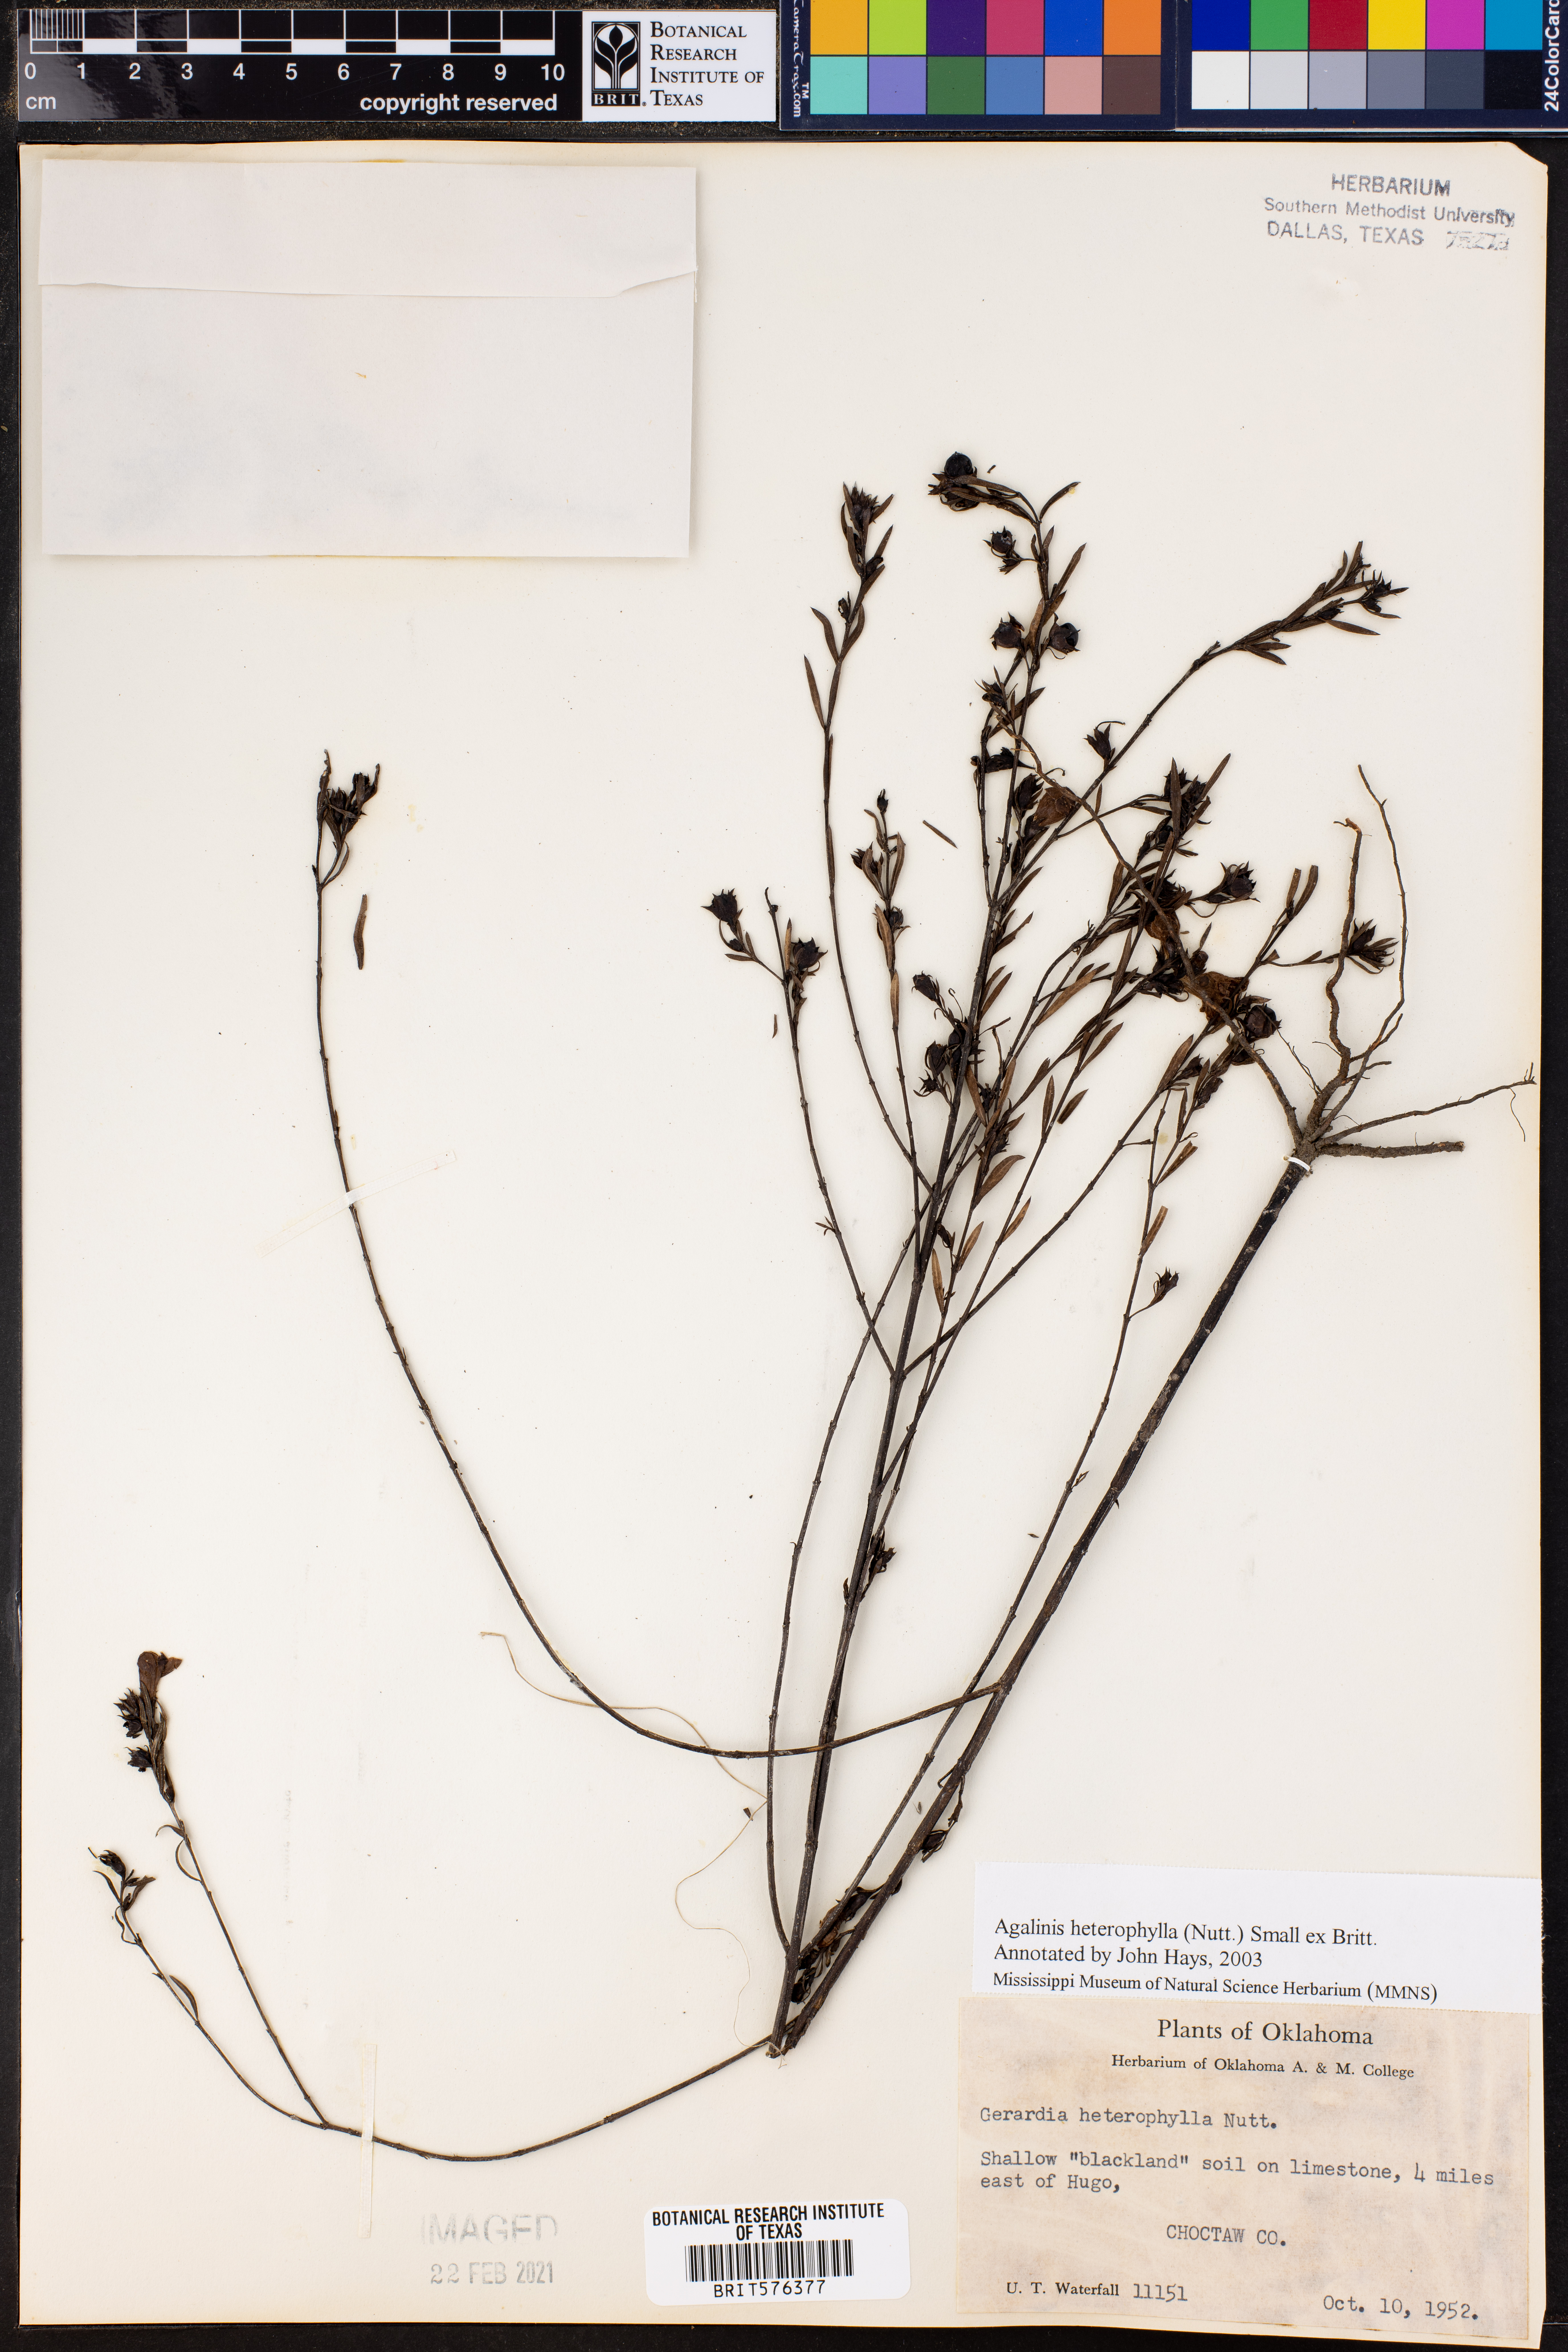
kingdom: Plantae
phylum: Tracheophyta
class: Magnoliopsida
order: Lamiales
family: Orobanchaceae
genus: Agalinis
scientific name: Agalinis heterophylla
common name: Prairie agalinis
